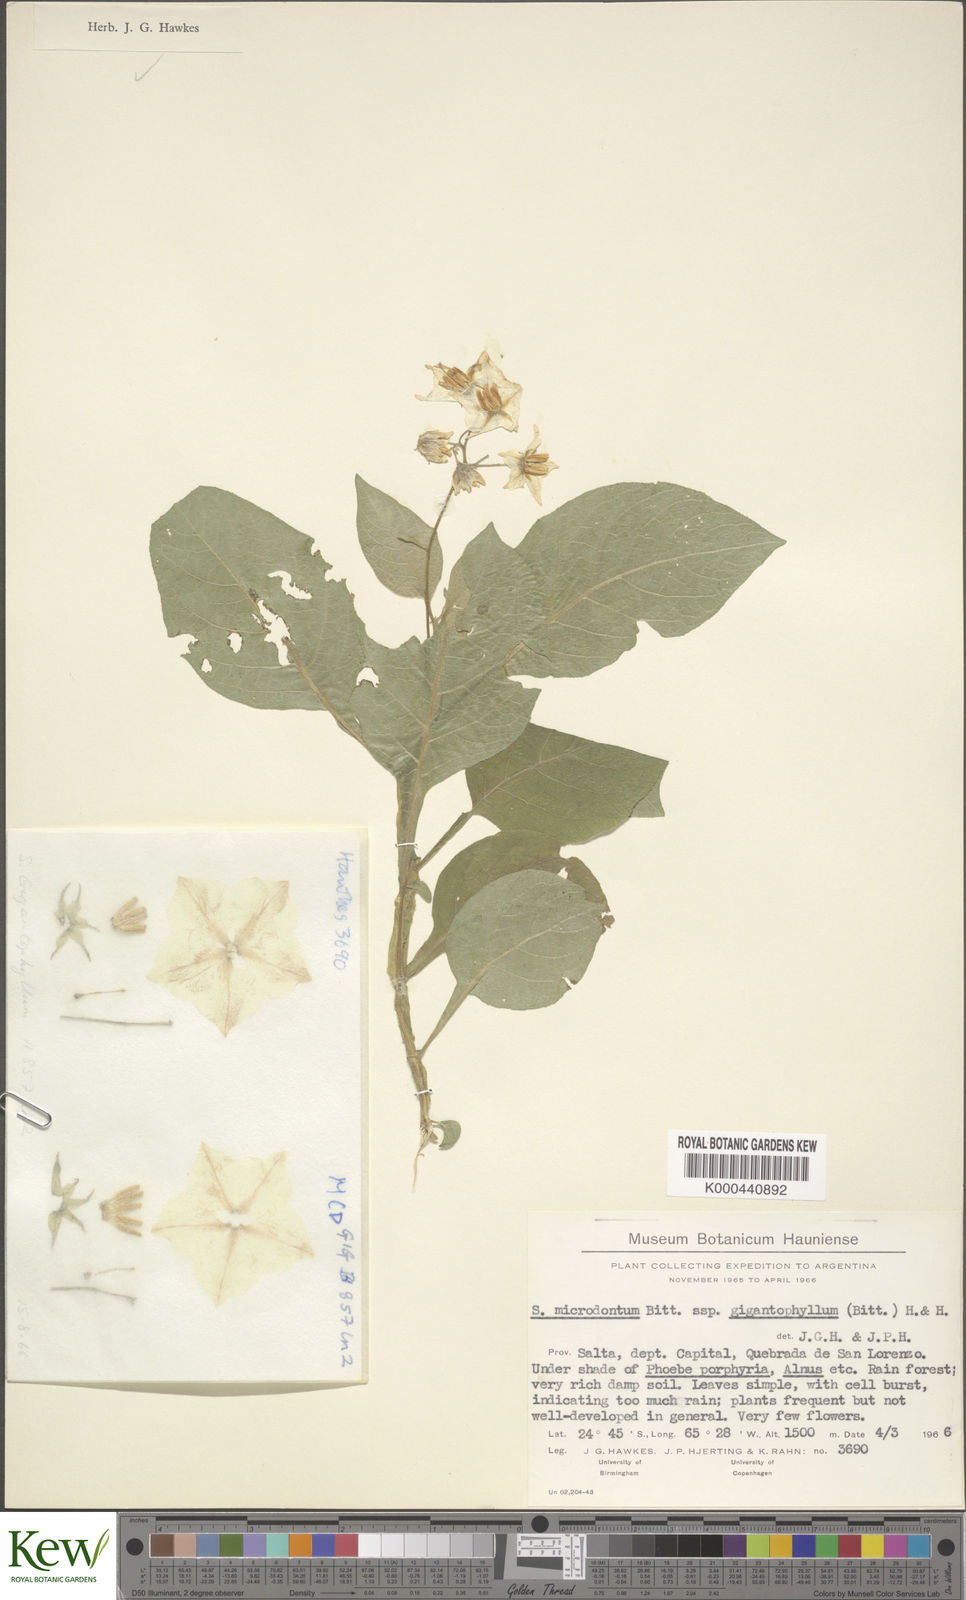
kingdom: Plantae
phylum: Tracheophyta
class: Magnoliopsida
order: Solanales
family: Solanaceae
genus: Solanum
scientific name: Solanum microdontum
